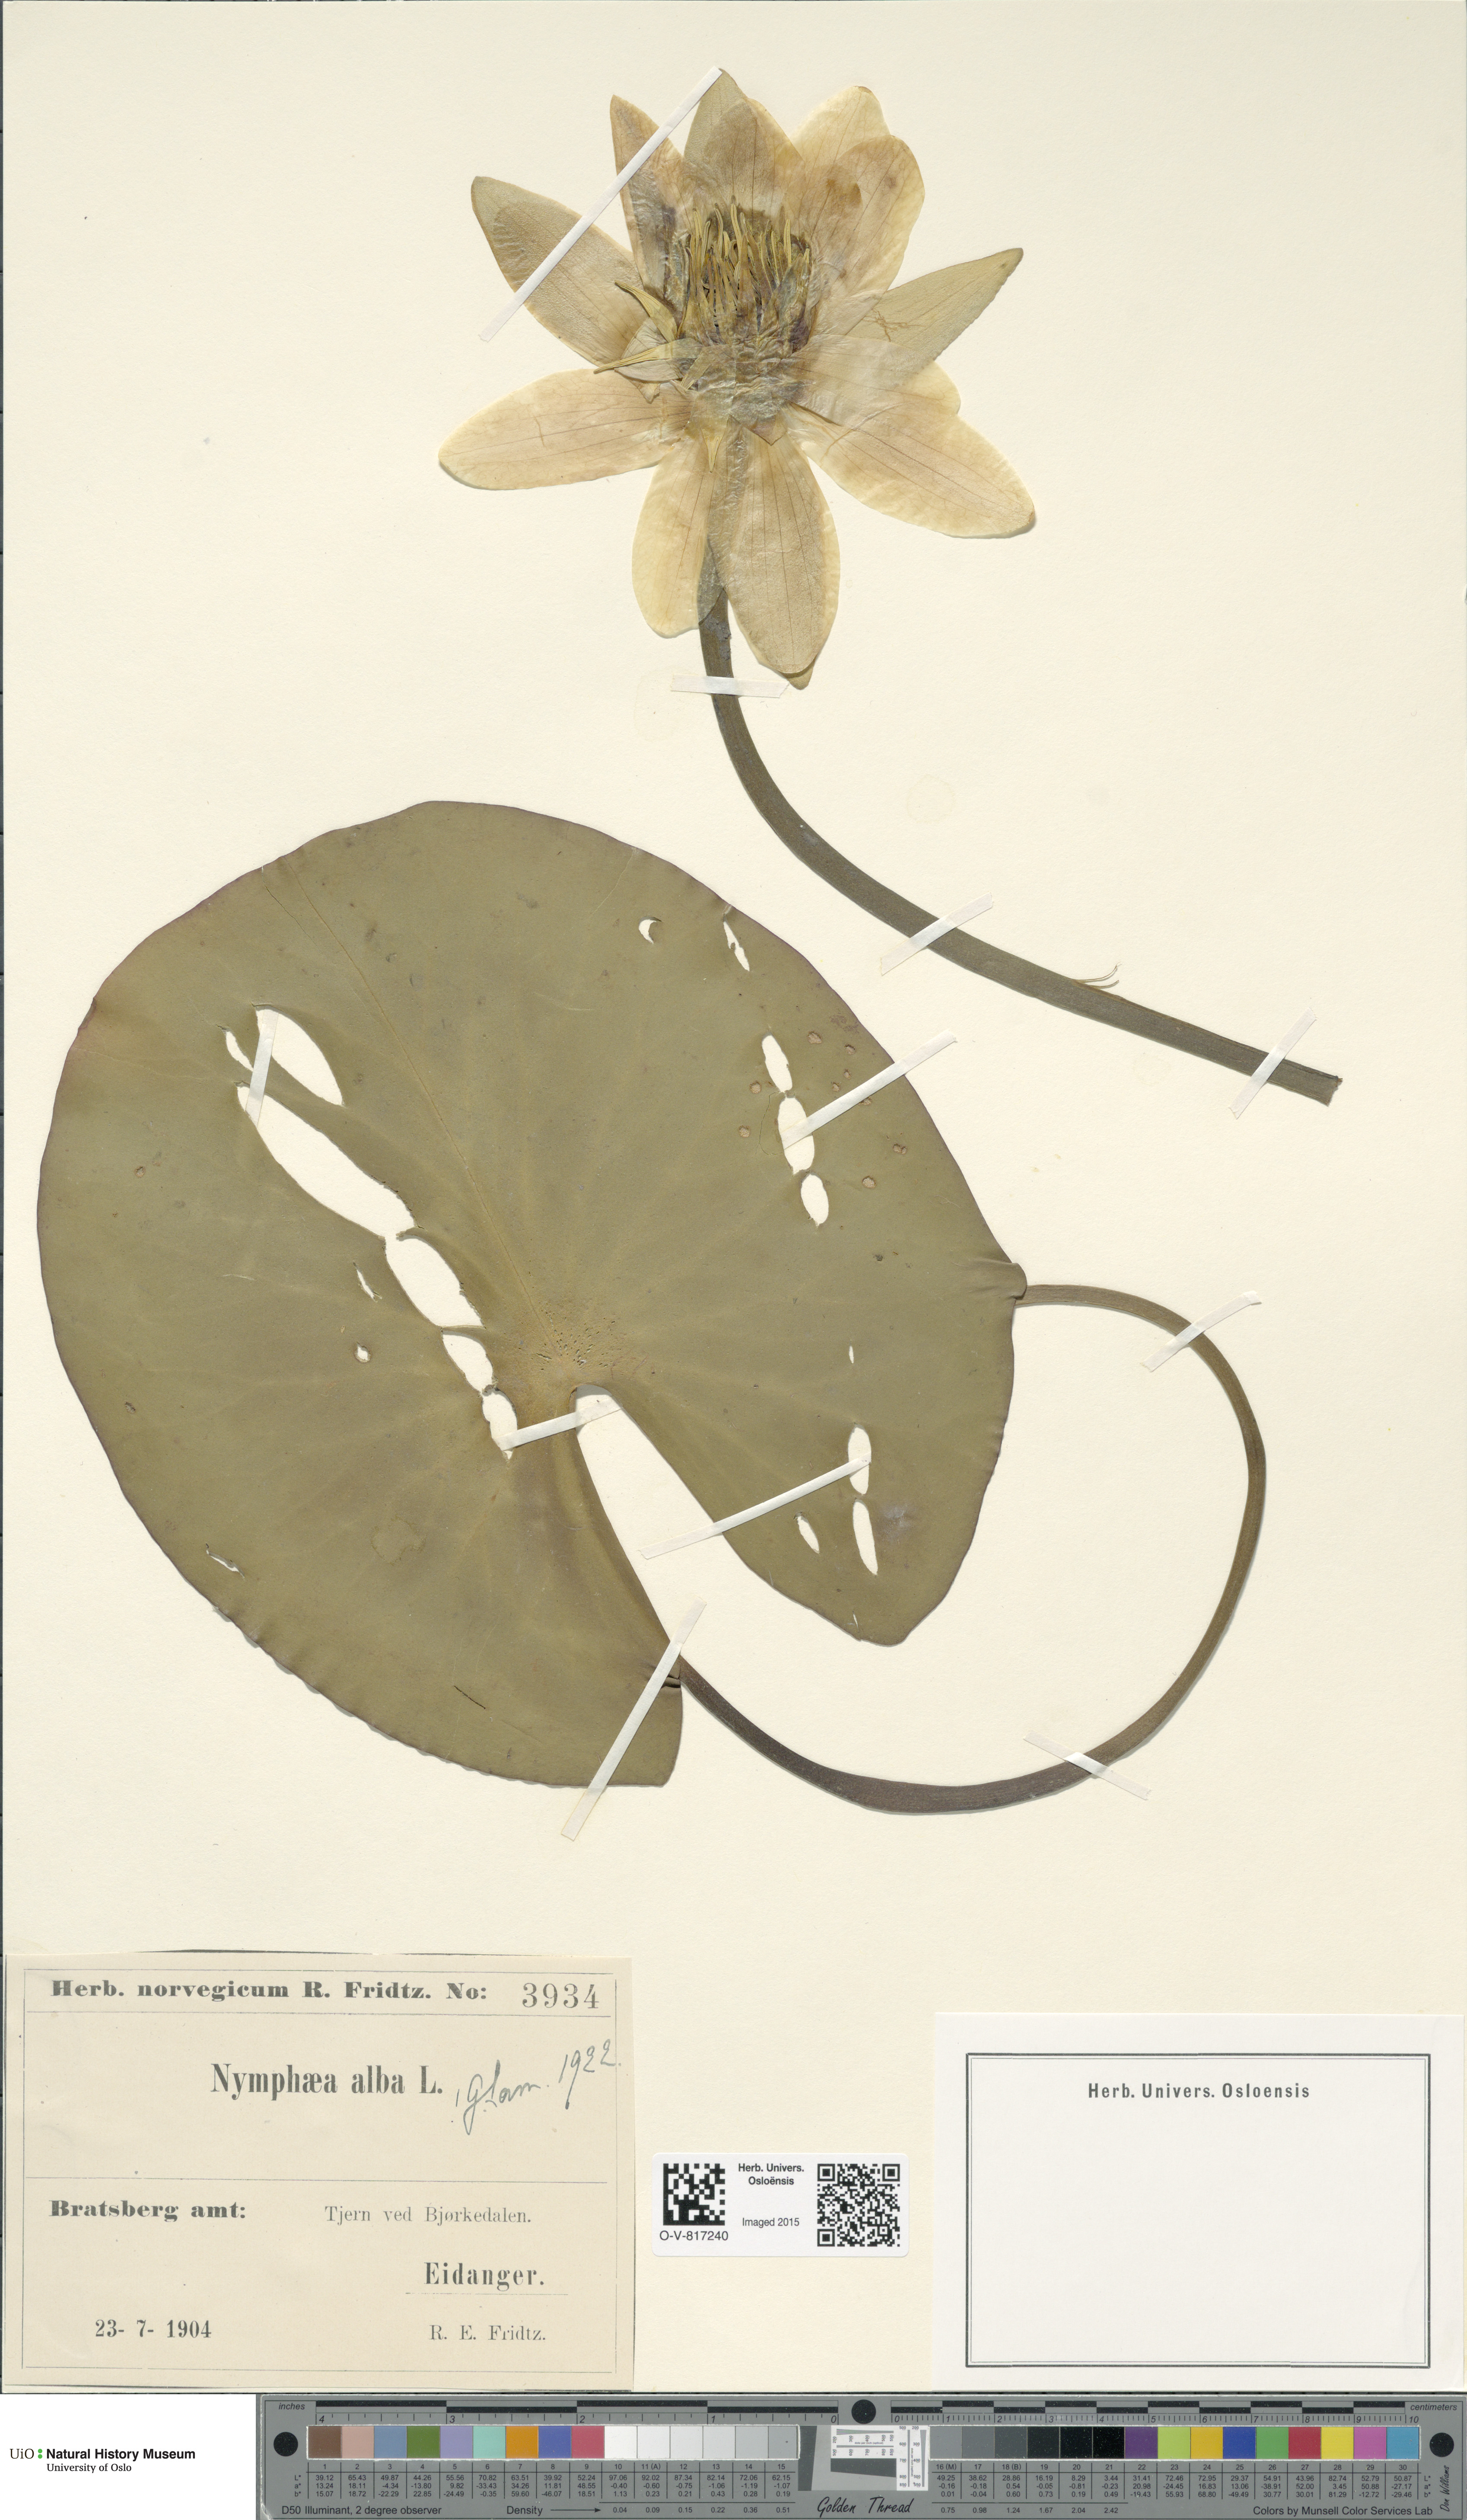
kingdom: Plantae
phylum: Tracheophyta
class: Magnoliopsida
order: Nymphaeales
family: Nymphaeaceae
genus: Nymphaea
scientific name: Nymphaea alba
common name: White water-lily
